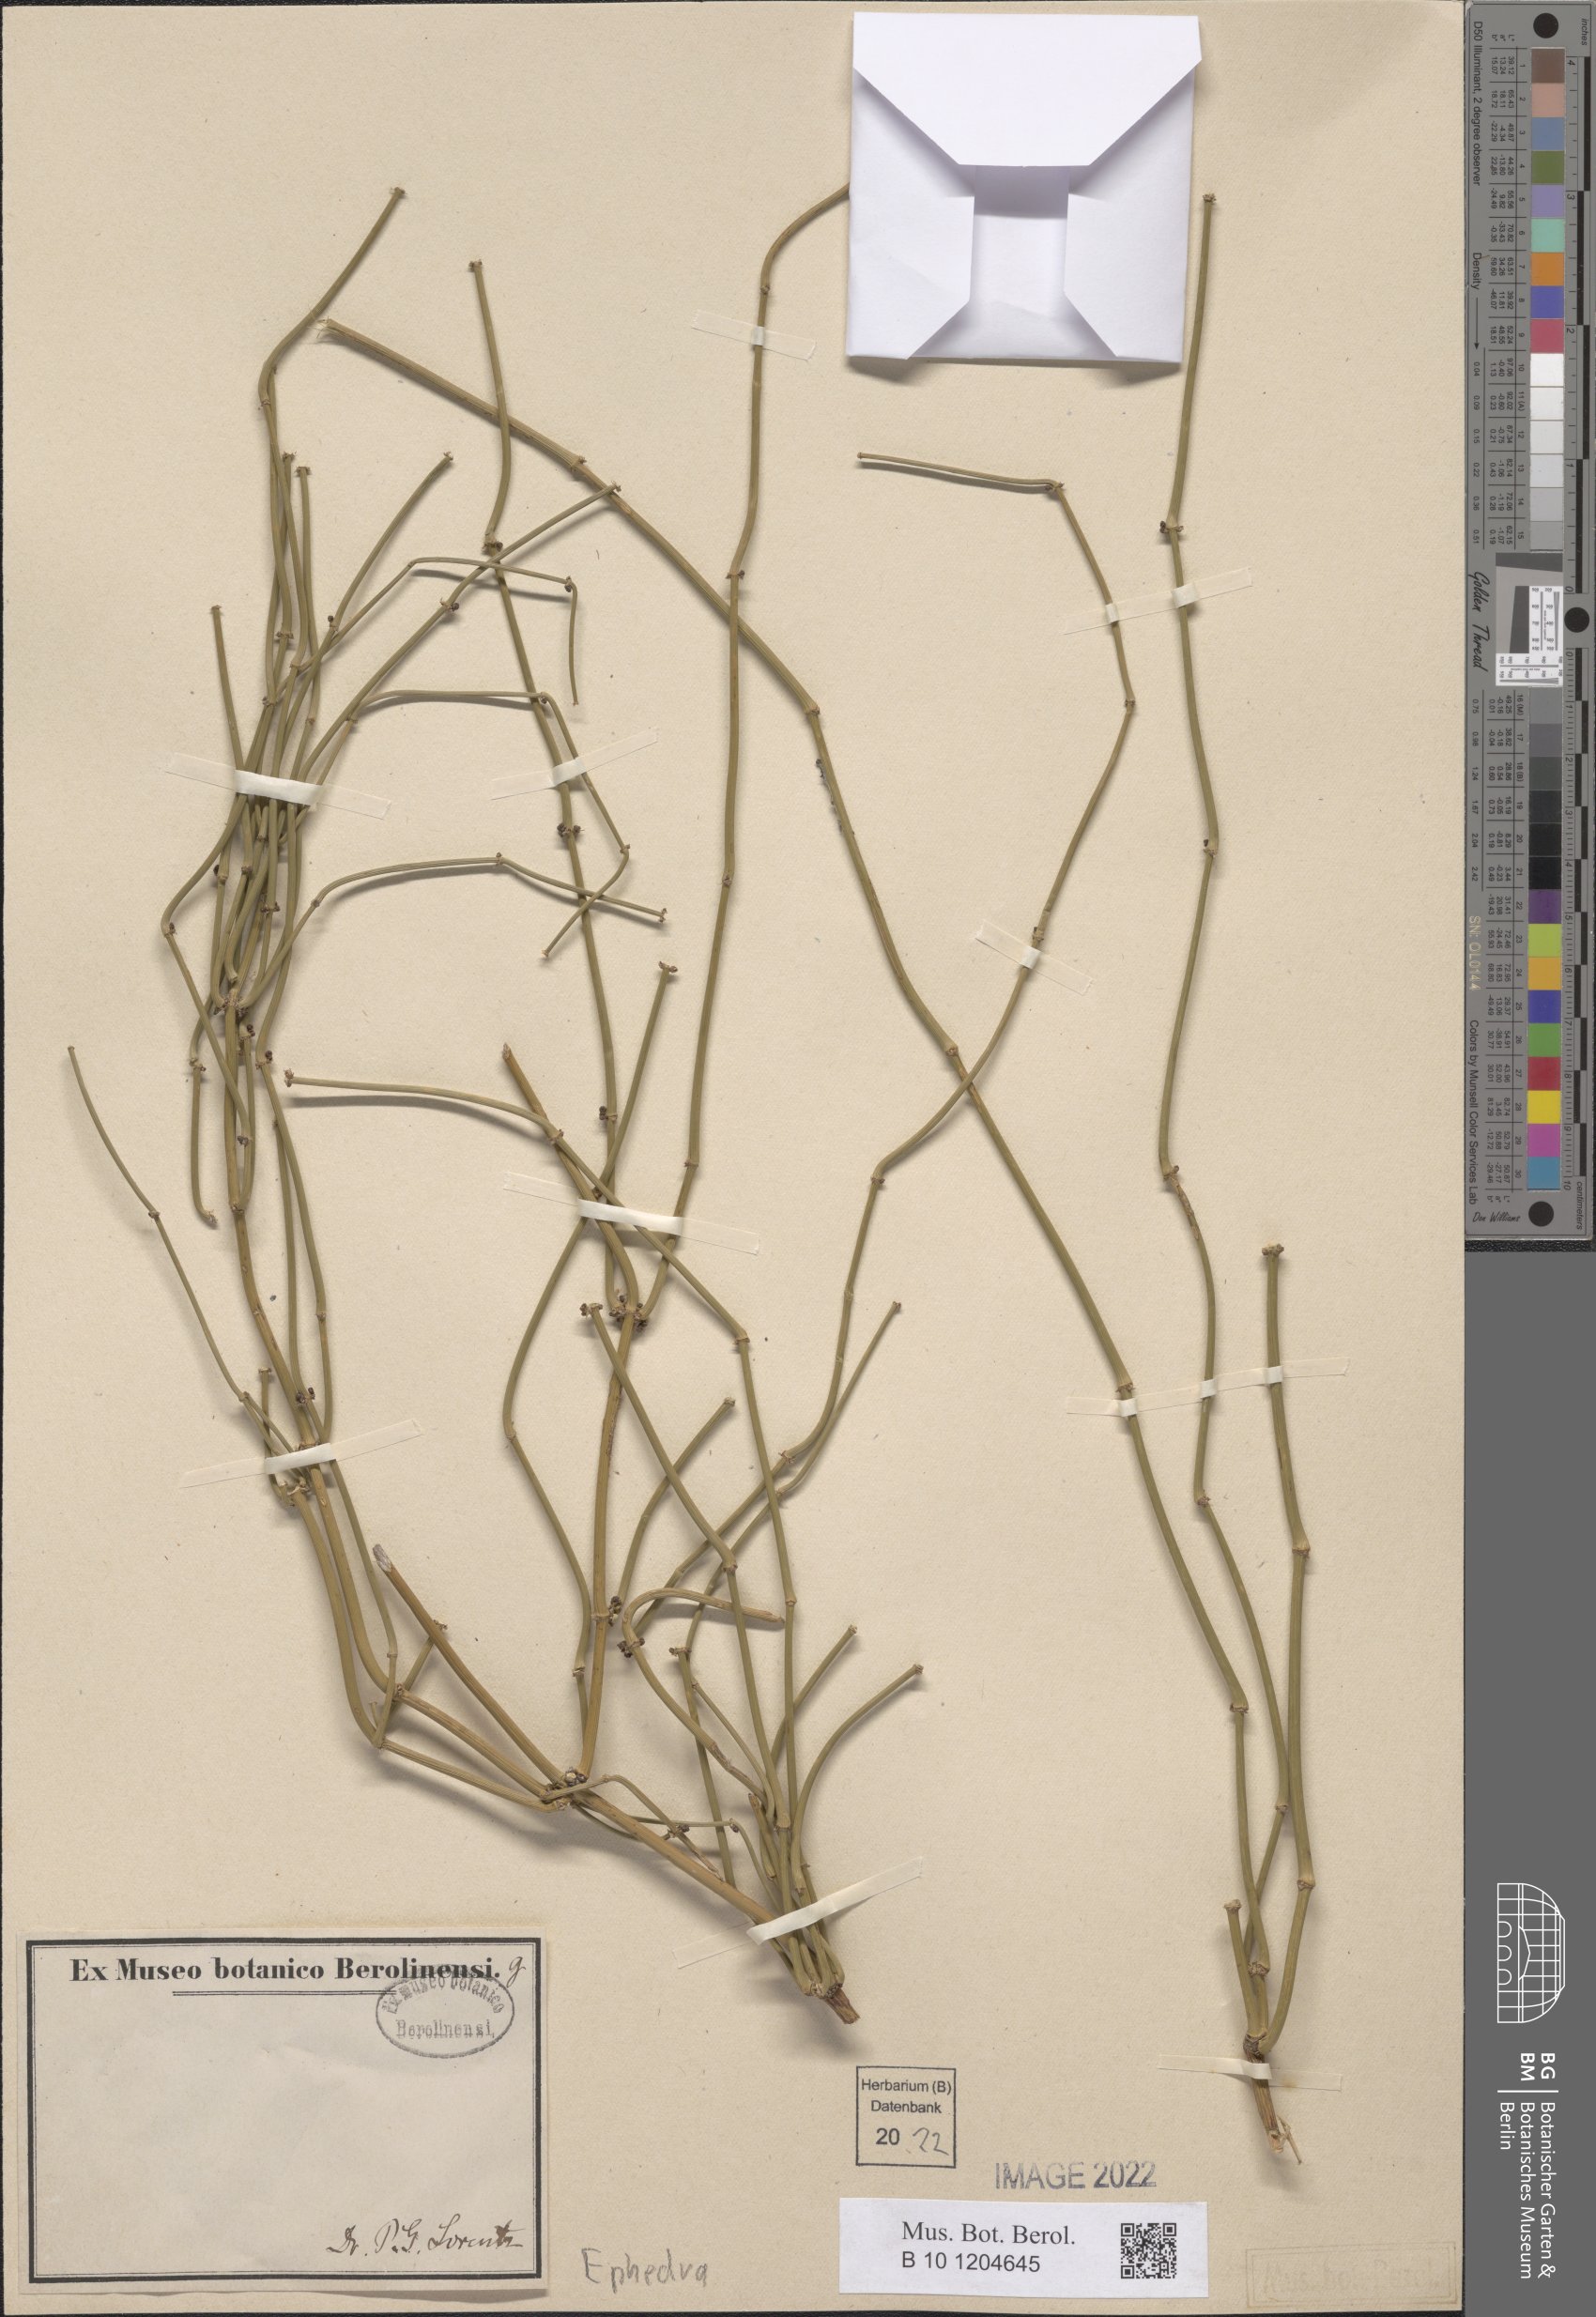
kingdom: Plantae
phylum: Tracheophyta
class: Gnetopsida
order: Ephedrales
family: Ephedraceae
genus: Ephedra
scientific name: Ephedra
